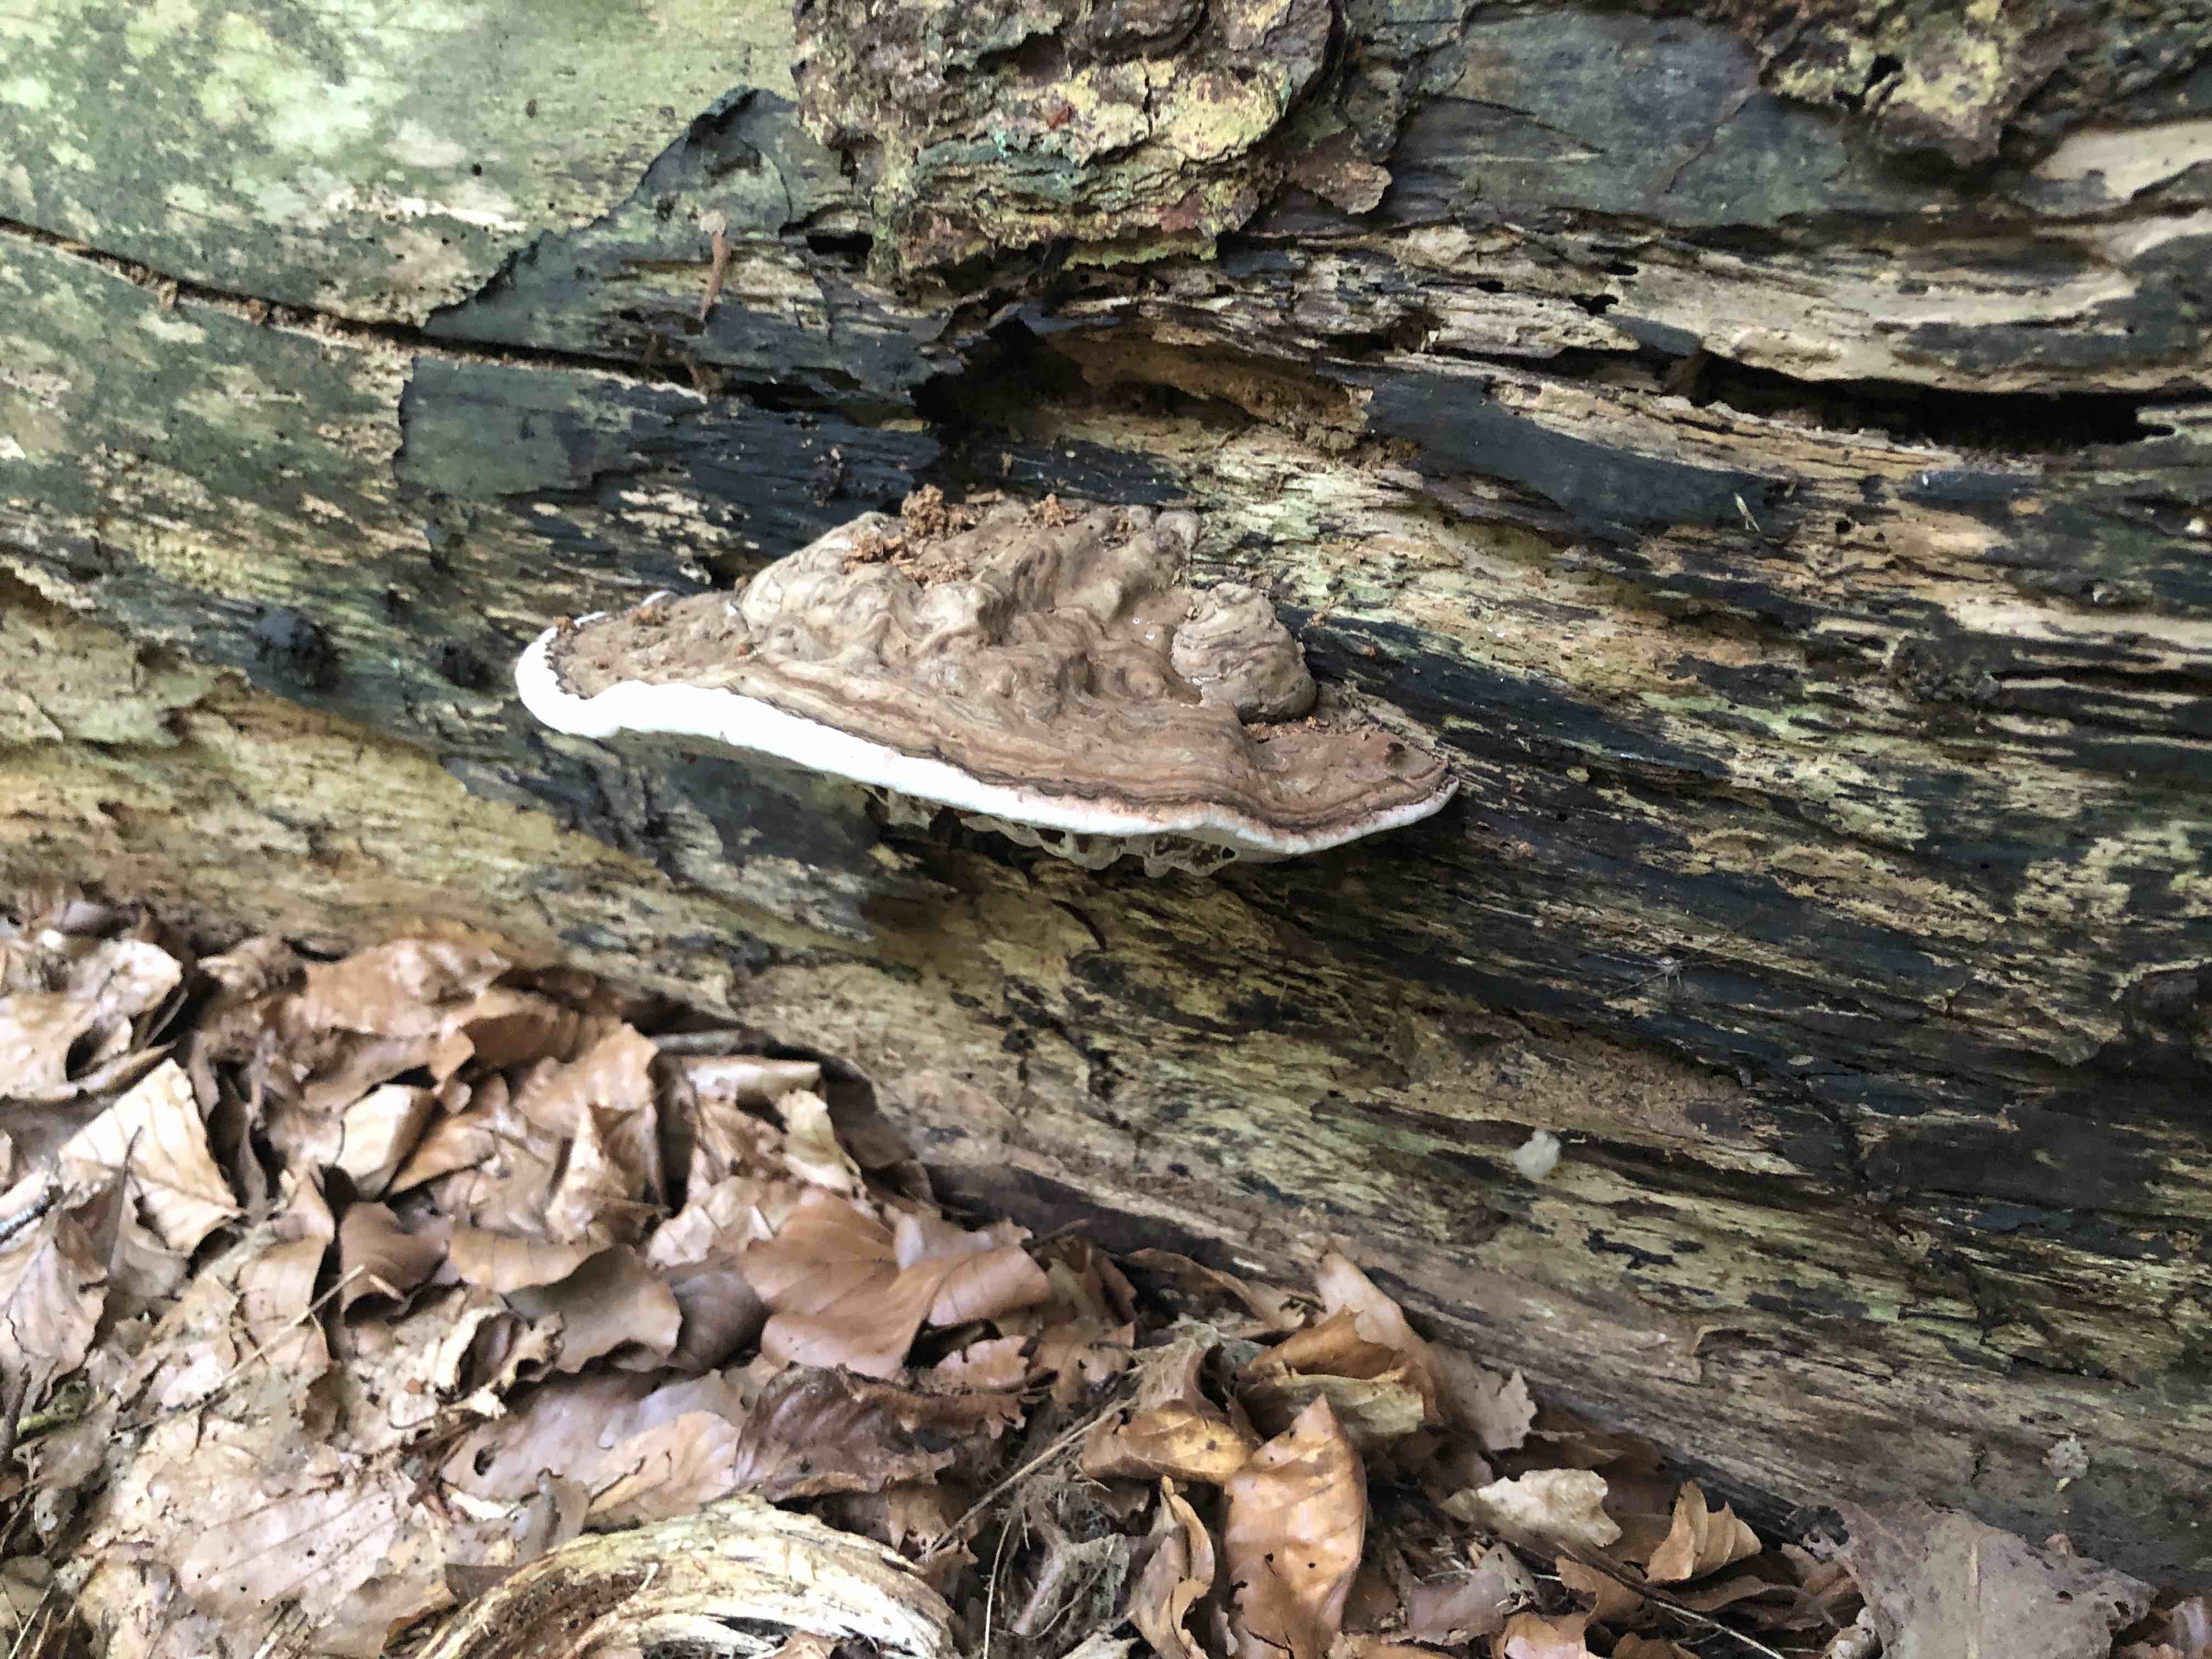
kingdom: Fungi
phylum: Basidiomycota
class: Agaricomycetes
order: Polyporales
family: Polyporaceae
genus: Ganoderma
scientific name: Ganoderma applanatum
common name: flad lakporesvamp
